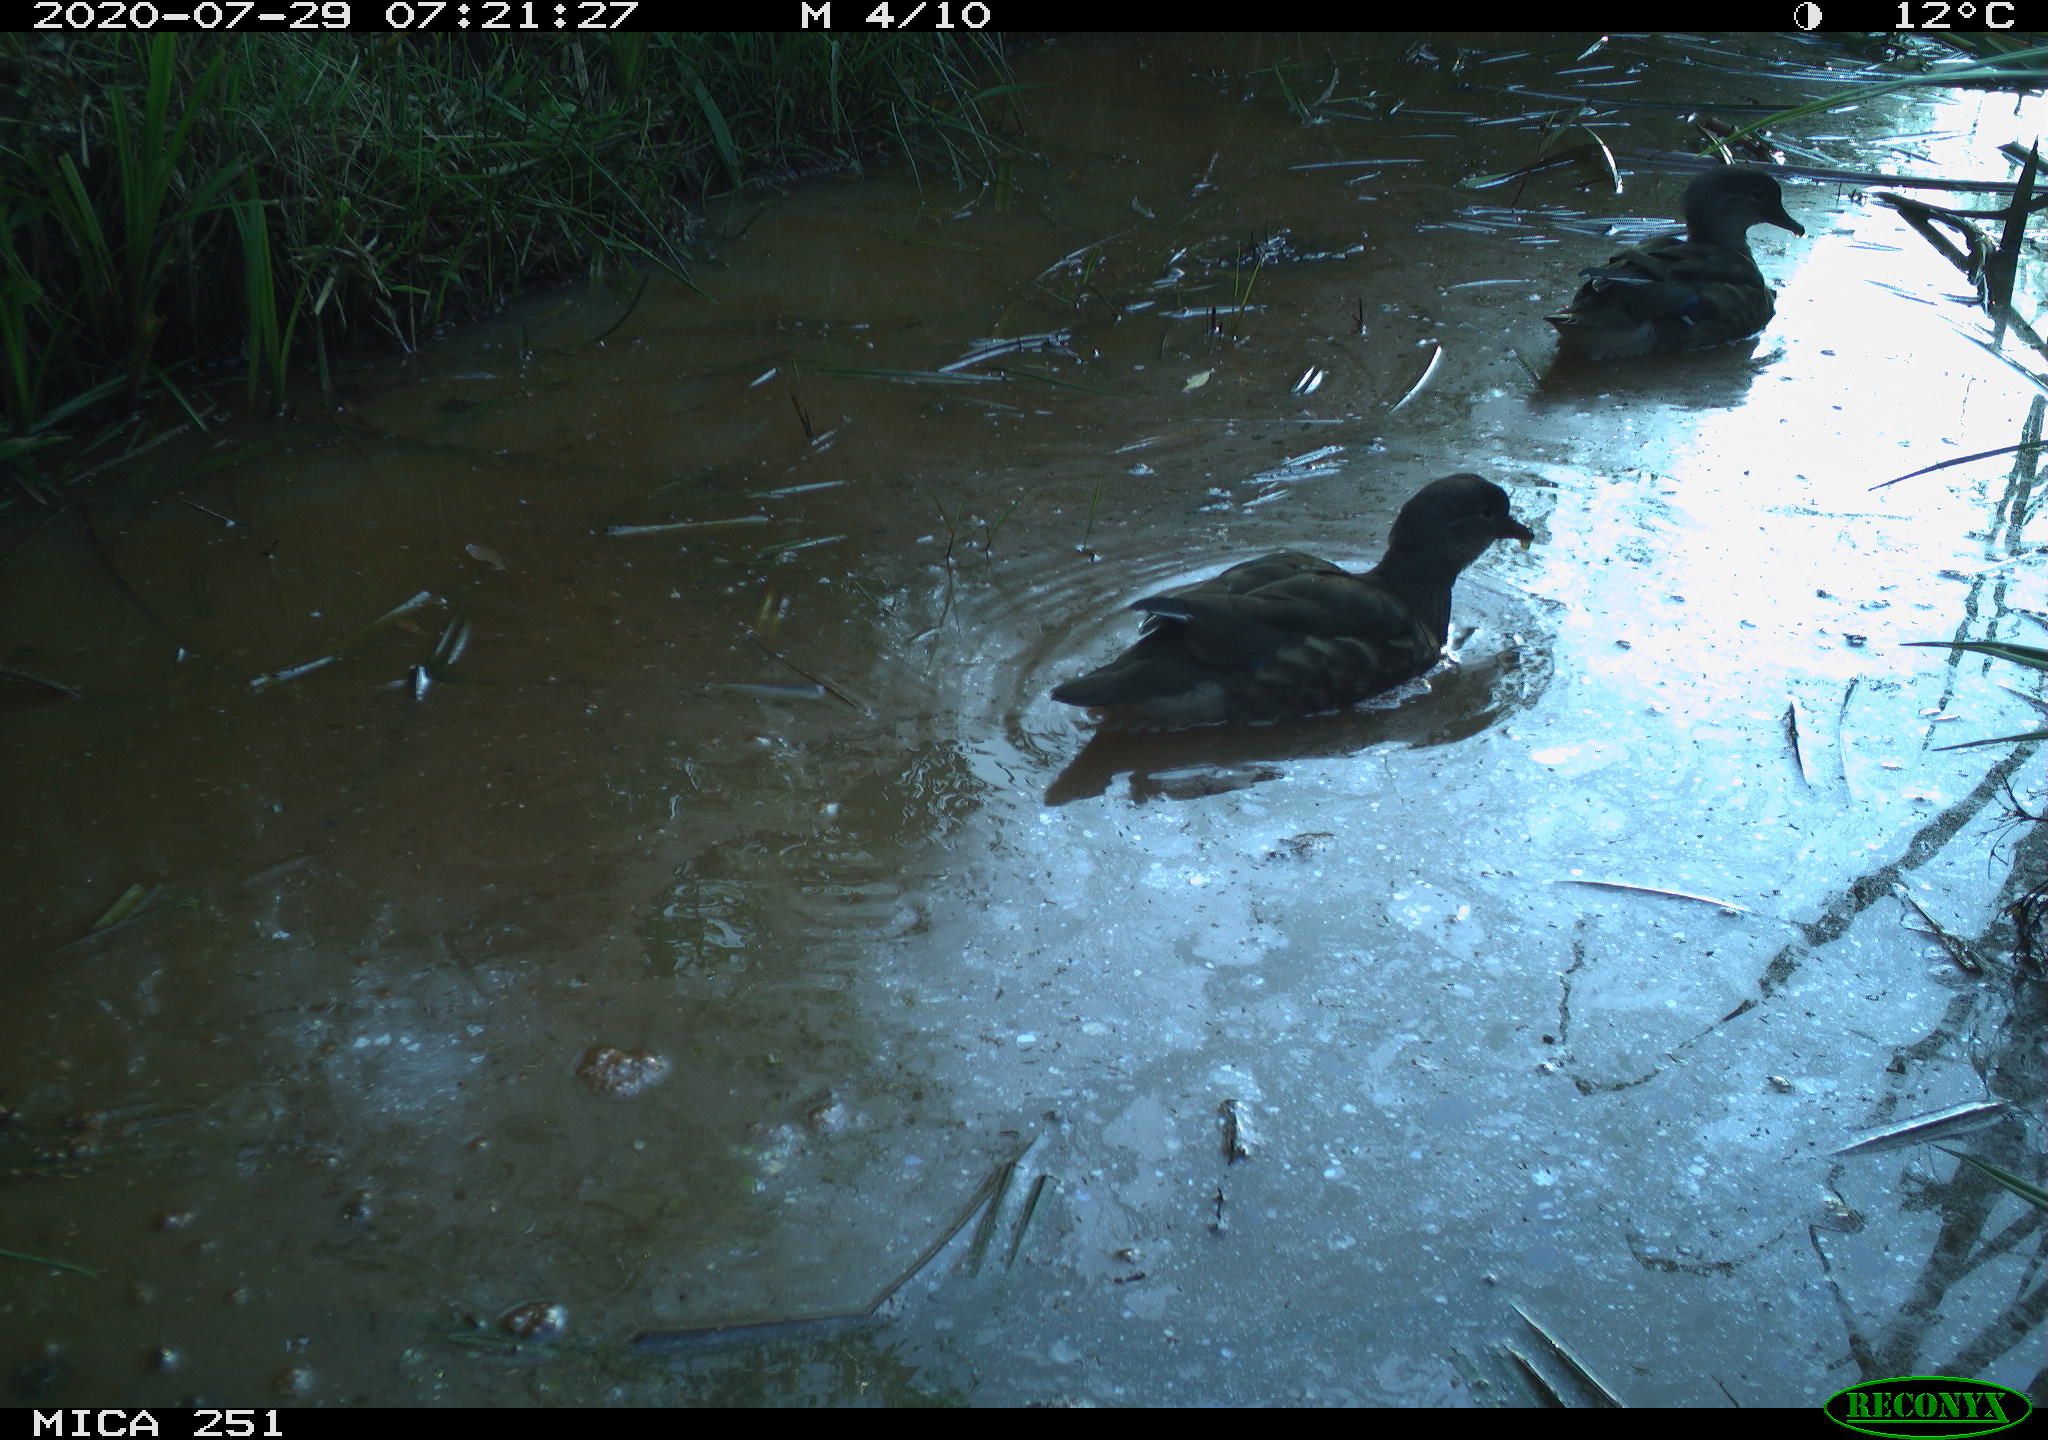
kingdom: Animalia
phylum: Chordata
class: Aves
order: Anseriformes
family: Anatidae
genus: Aix
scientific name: Aix galericulata
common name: Mandarin duck
